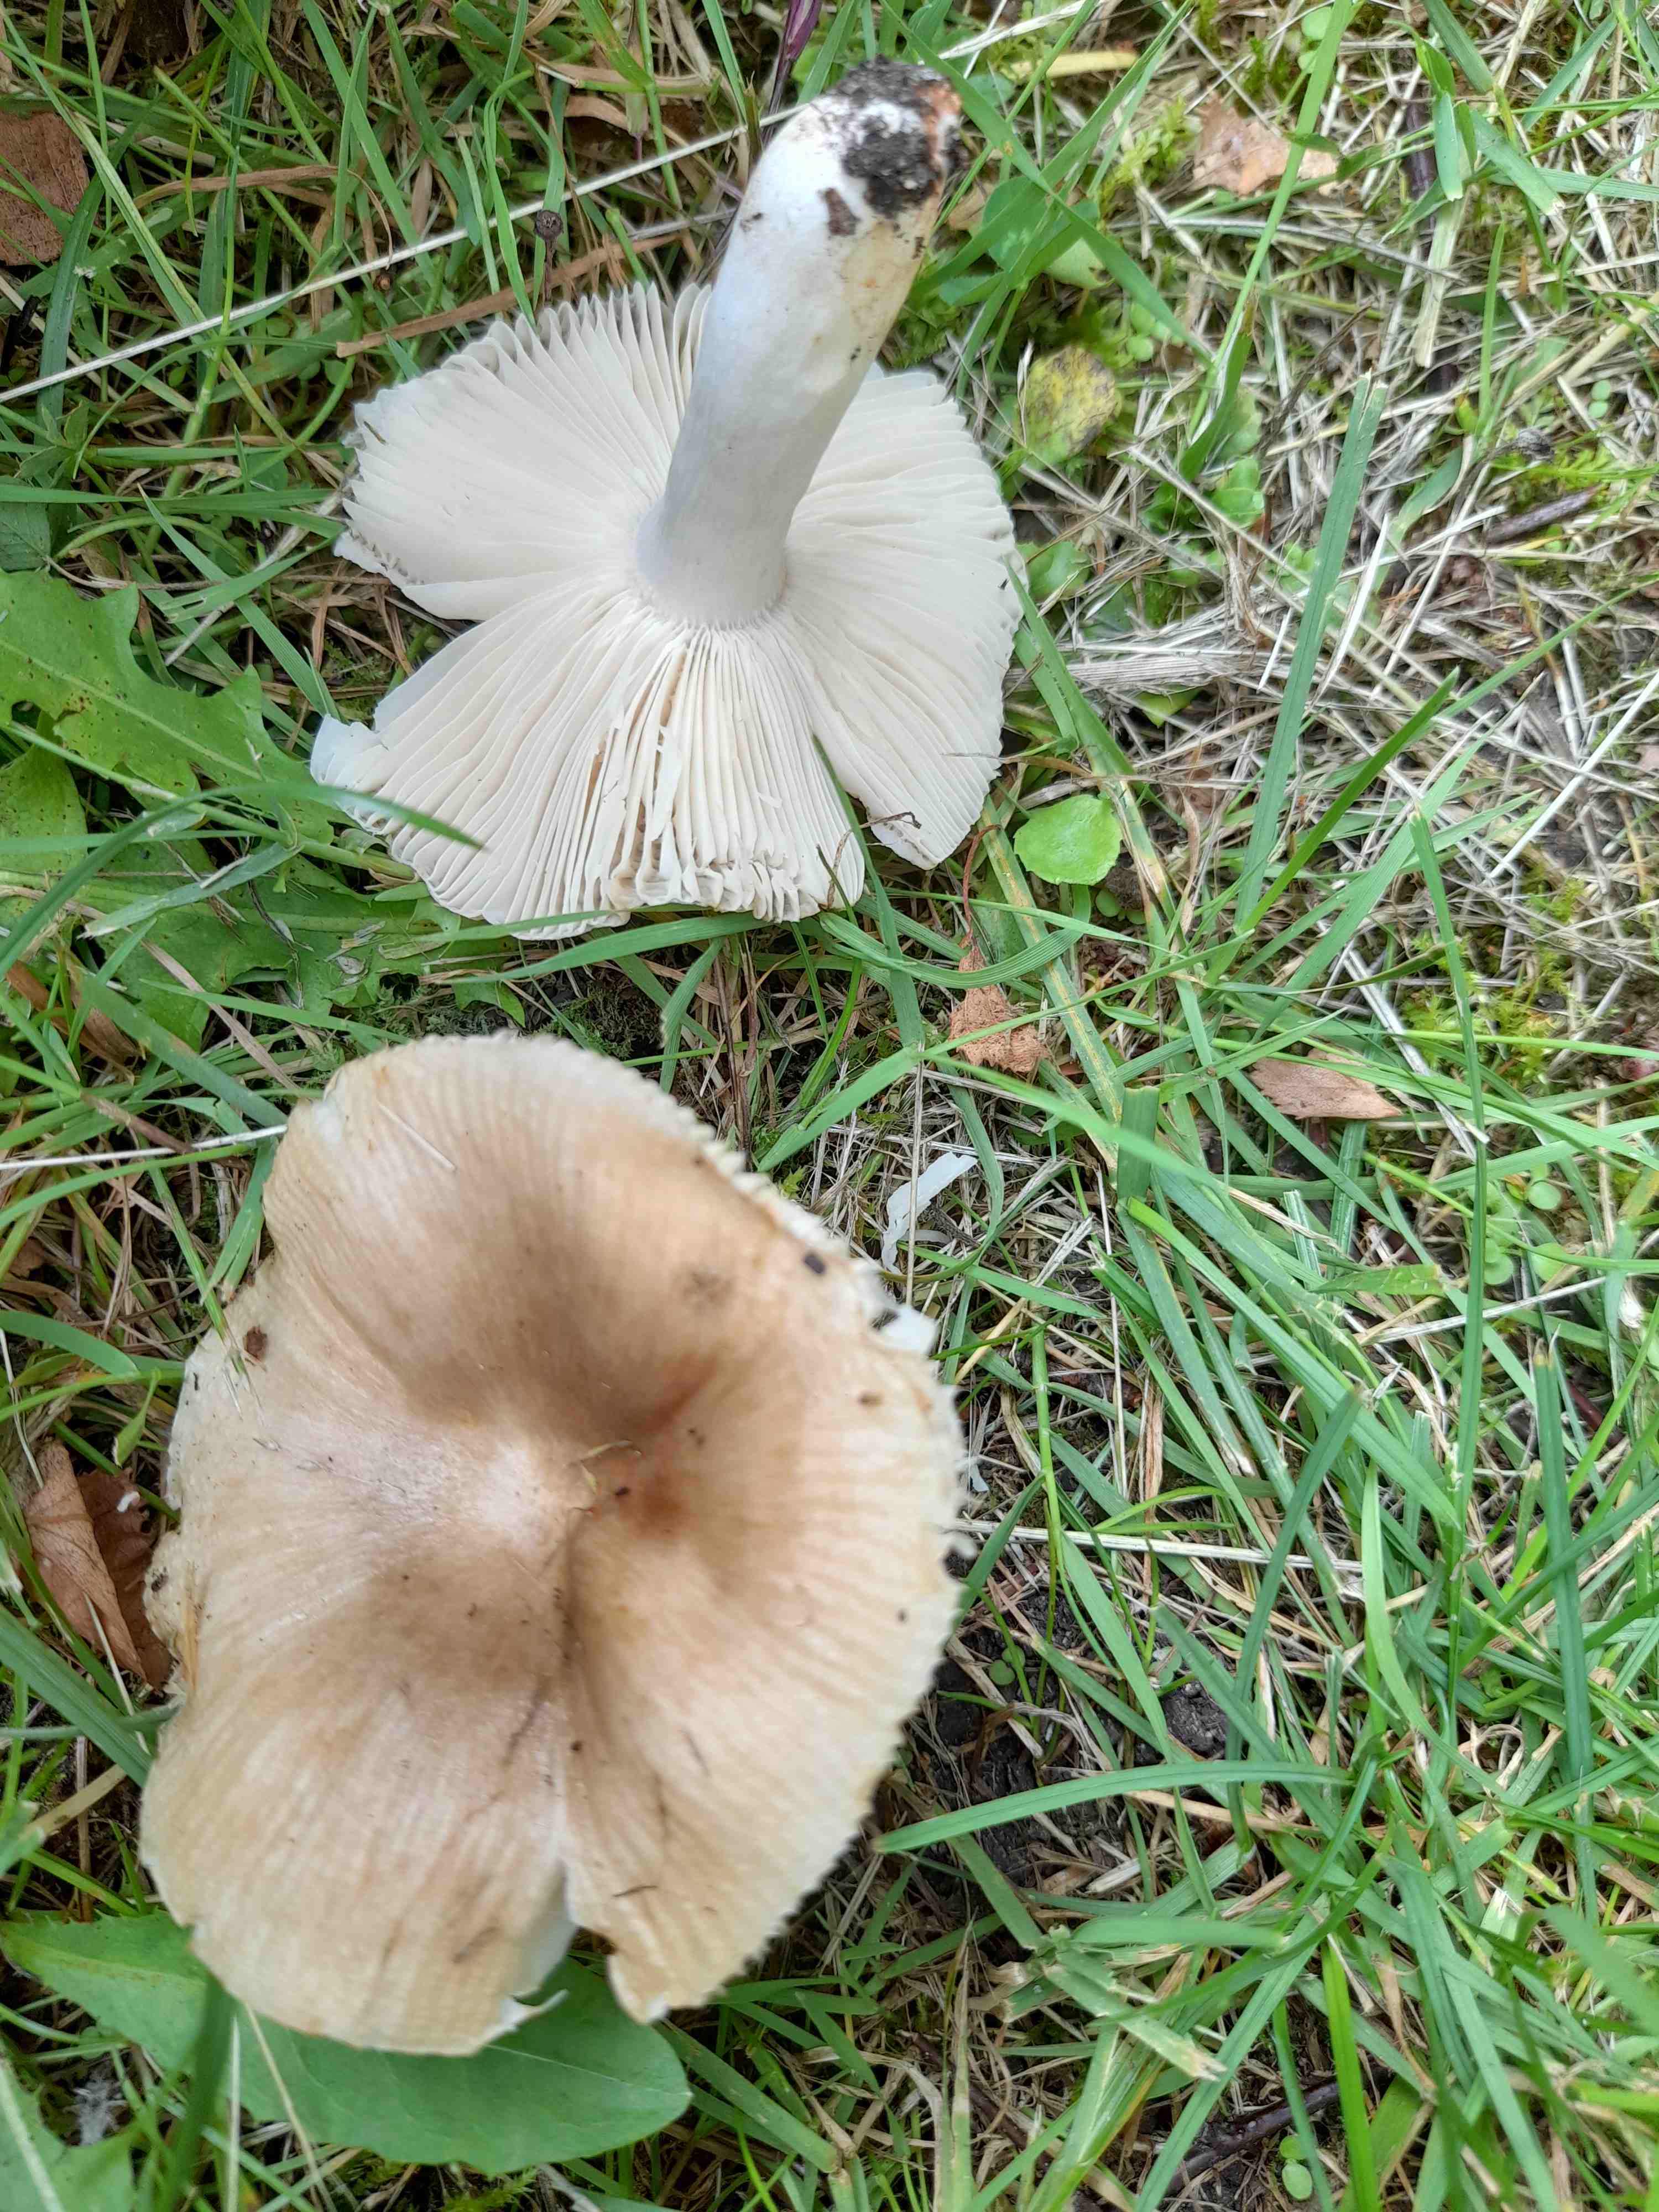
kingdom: Fungi
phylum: Basidiomycota
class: Agaricomycetes
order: Russulales
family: Russulaceae
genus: Russula
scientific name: Russula recondita
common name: mild kam-skørhat
